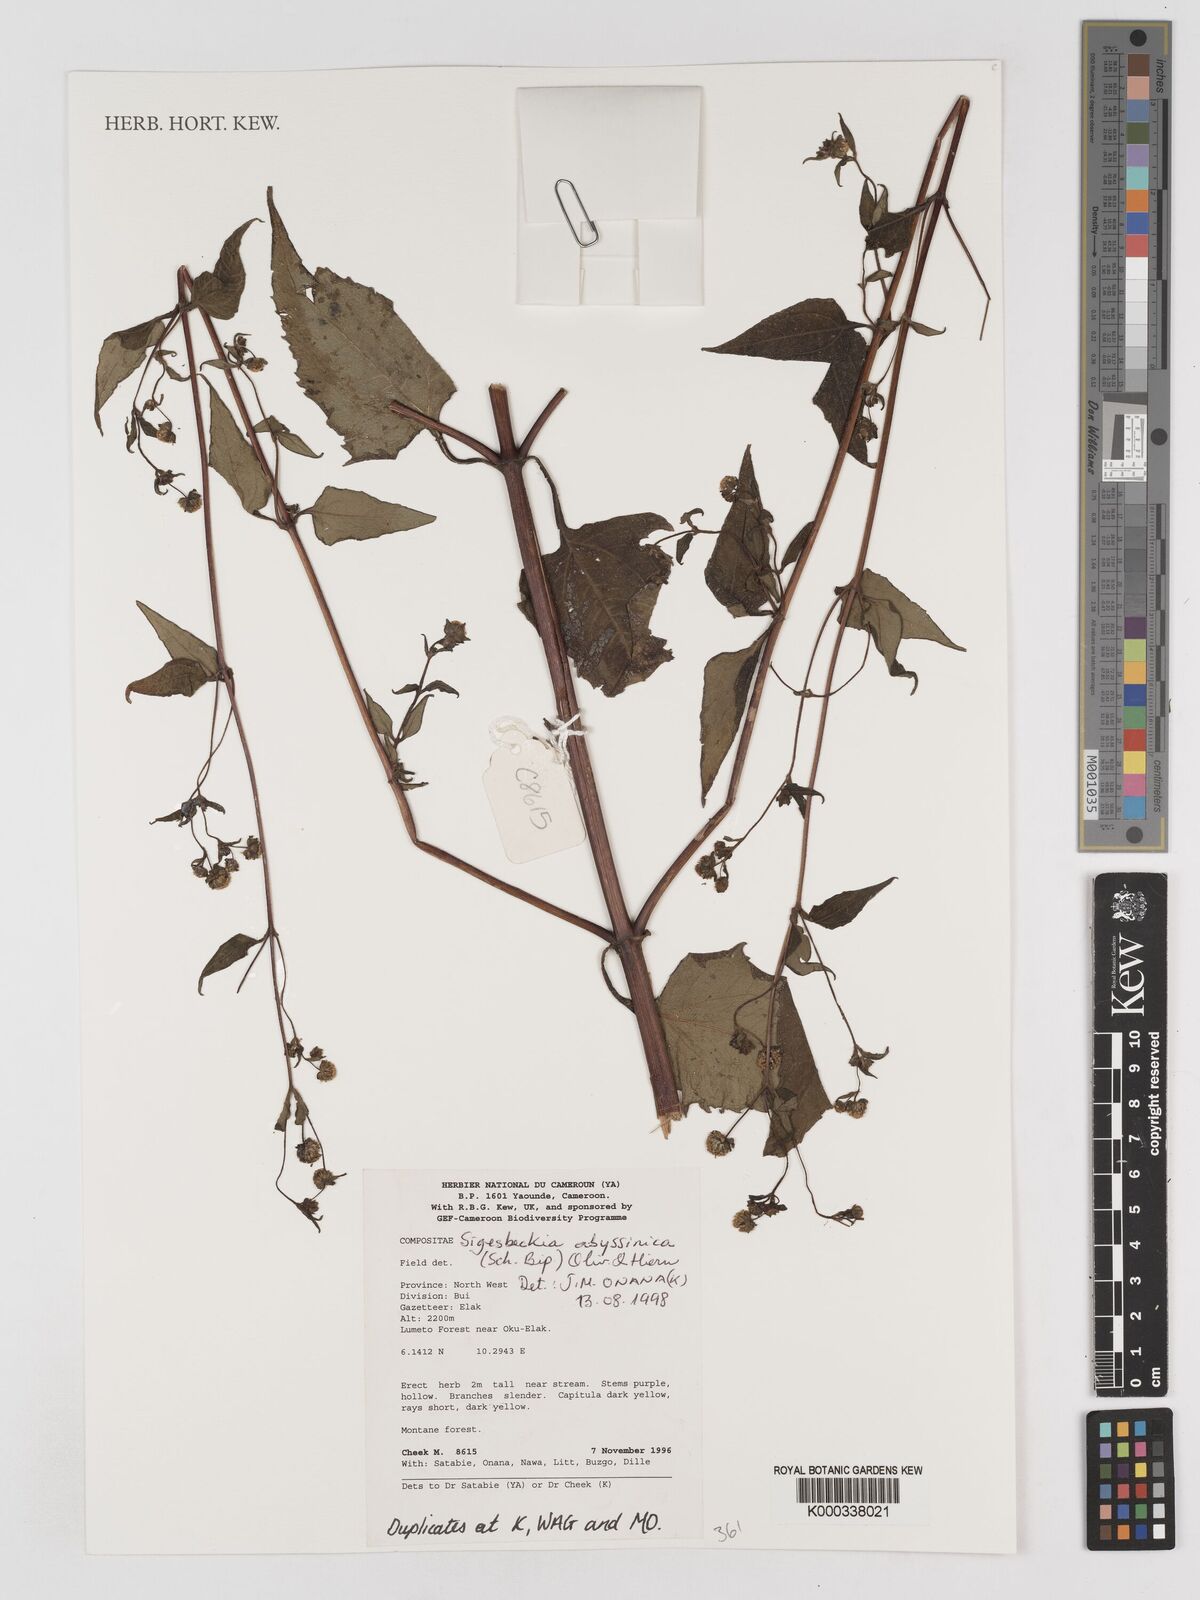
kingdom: Plantae
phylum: Tracheophyta
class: Magnoliopsida
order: Asterales
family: Asteraceae
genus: Micractis
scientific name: Micractis bojeri
